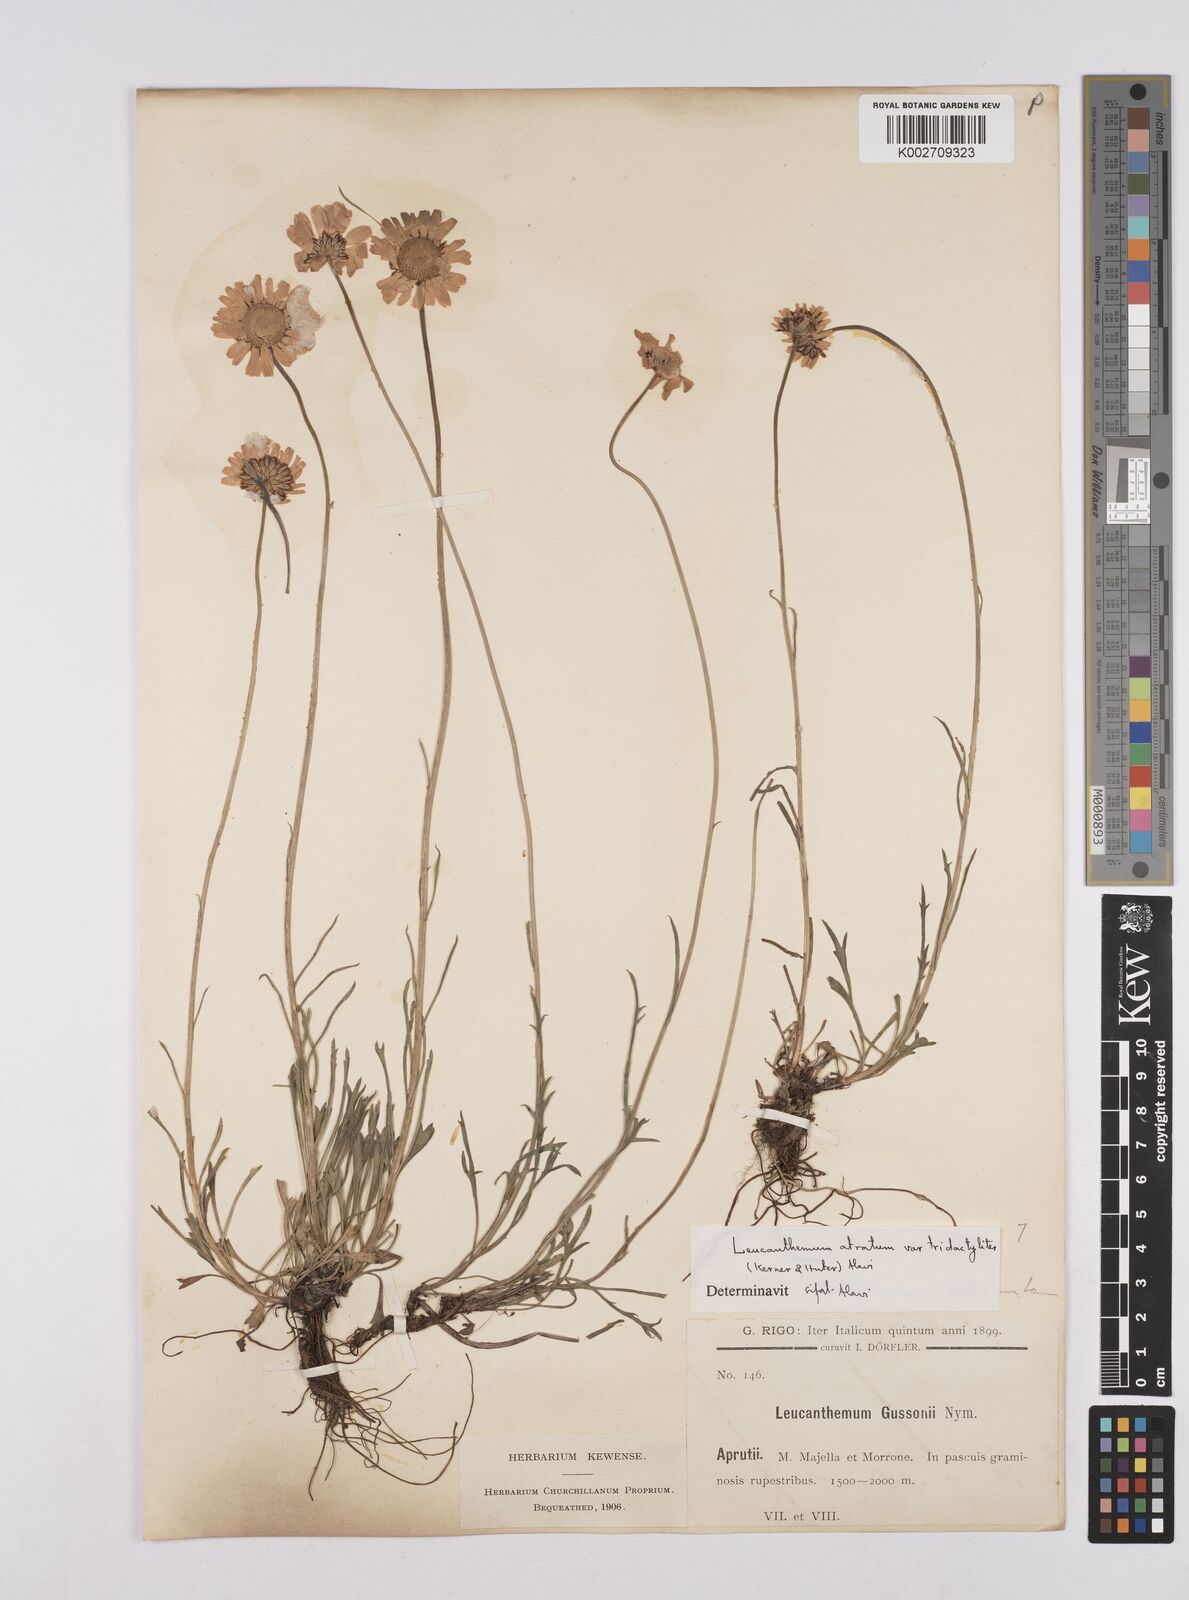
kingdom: Plantae
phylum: Tracheophyta
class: Magnoliopsida
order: Asterales
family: Asteraceae
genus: Leucanthemum
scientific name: Leucanthemum chloroticum
